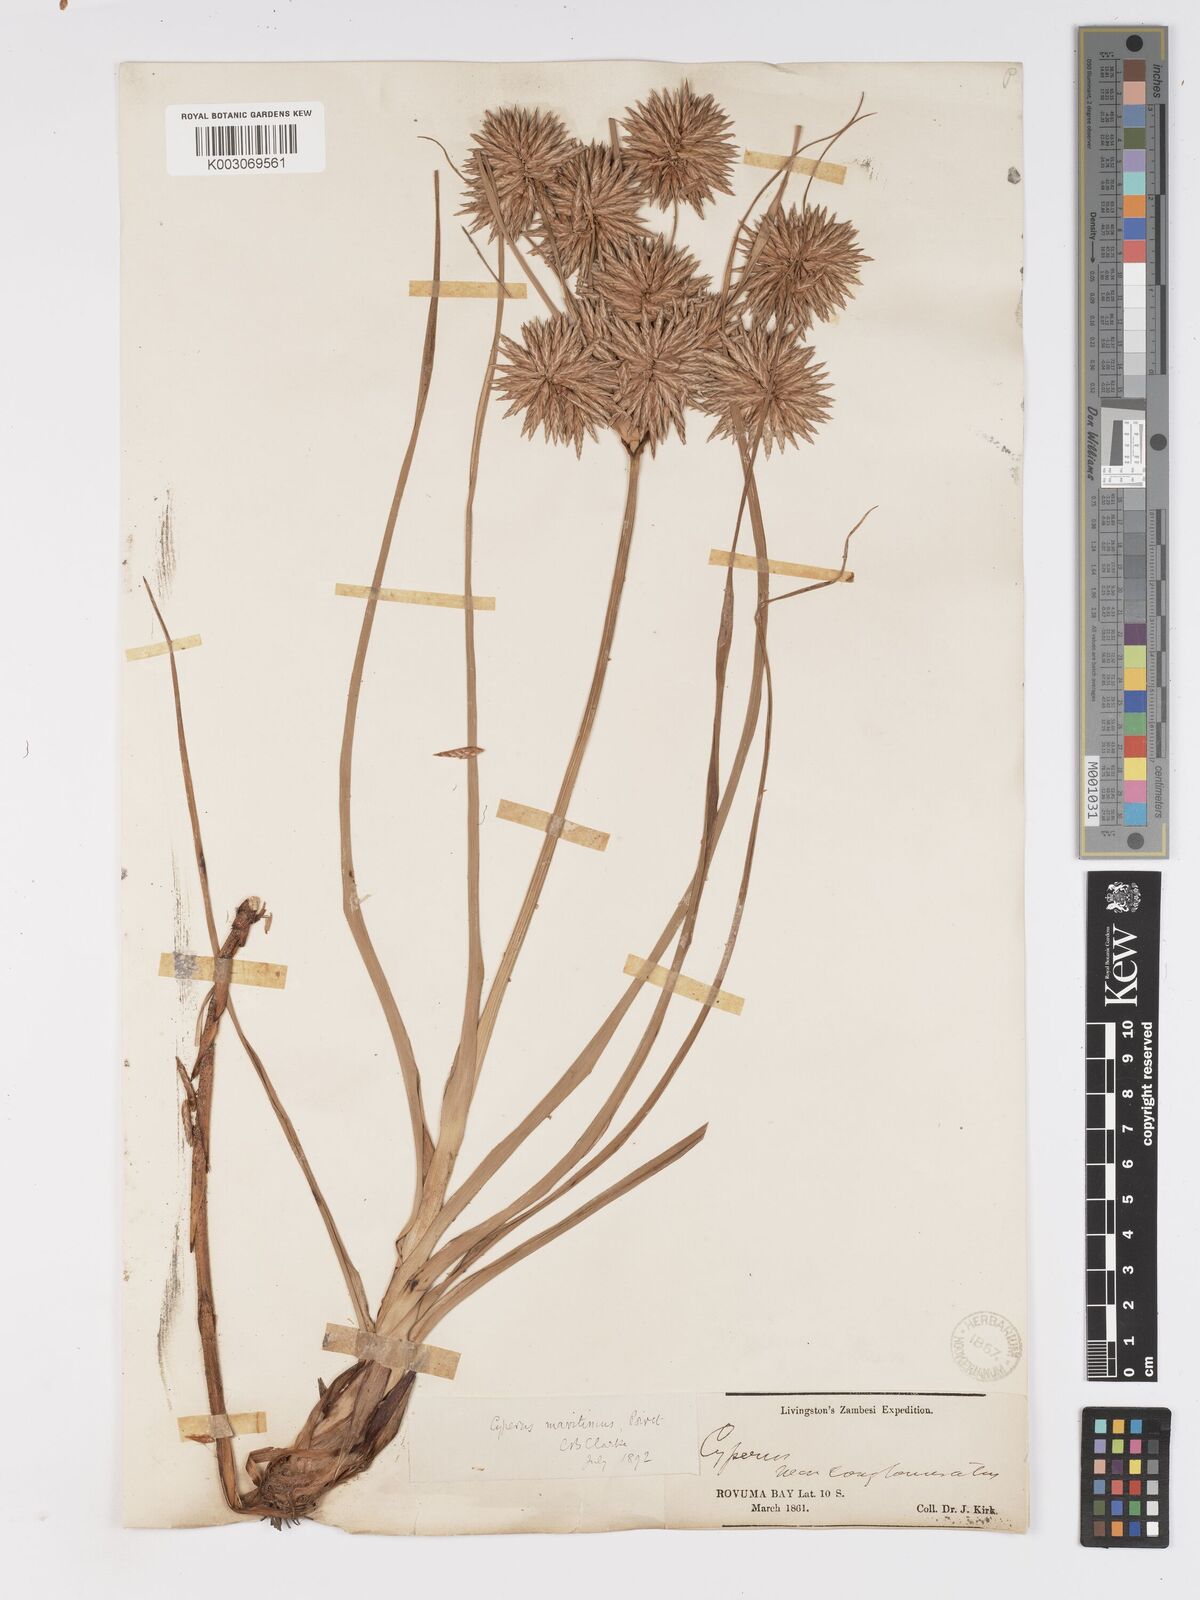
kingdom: Plantae
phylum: Tracheophyta
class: Liliopsida
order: Poales
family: Cyperaceae
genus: Cyperus
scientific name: Cyperus crassipes
